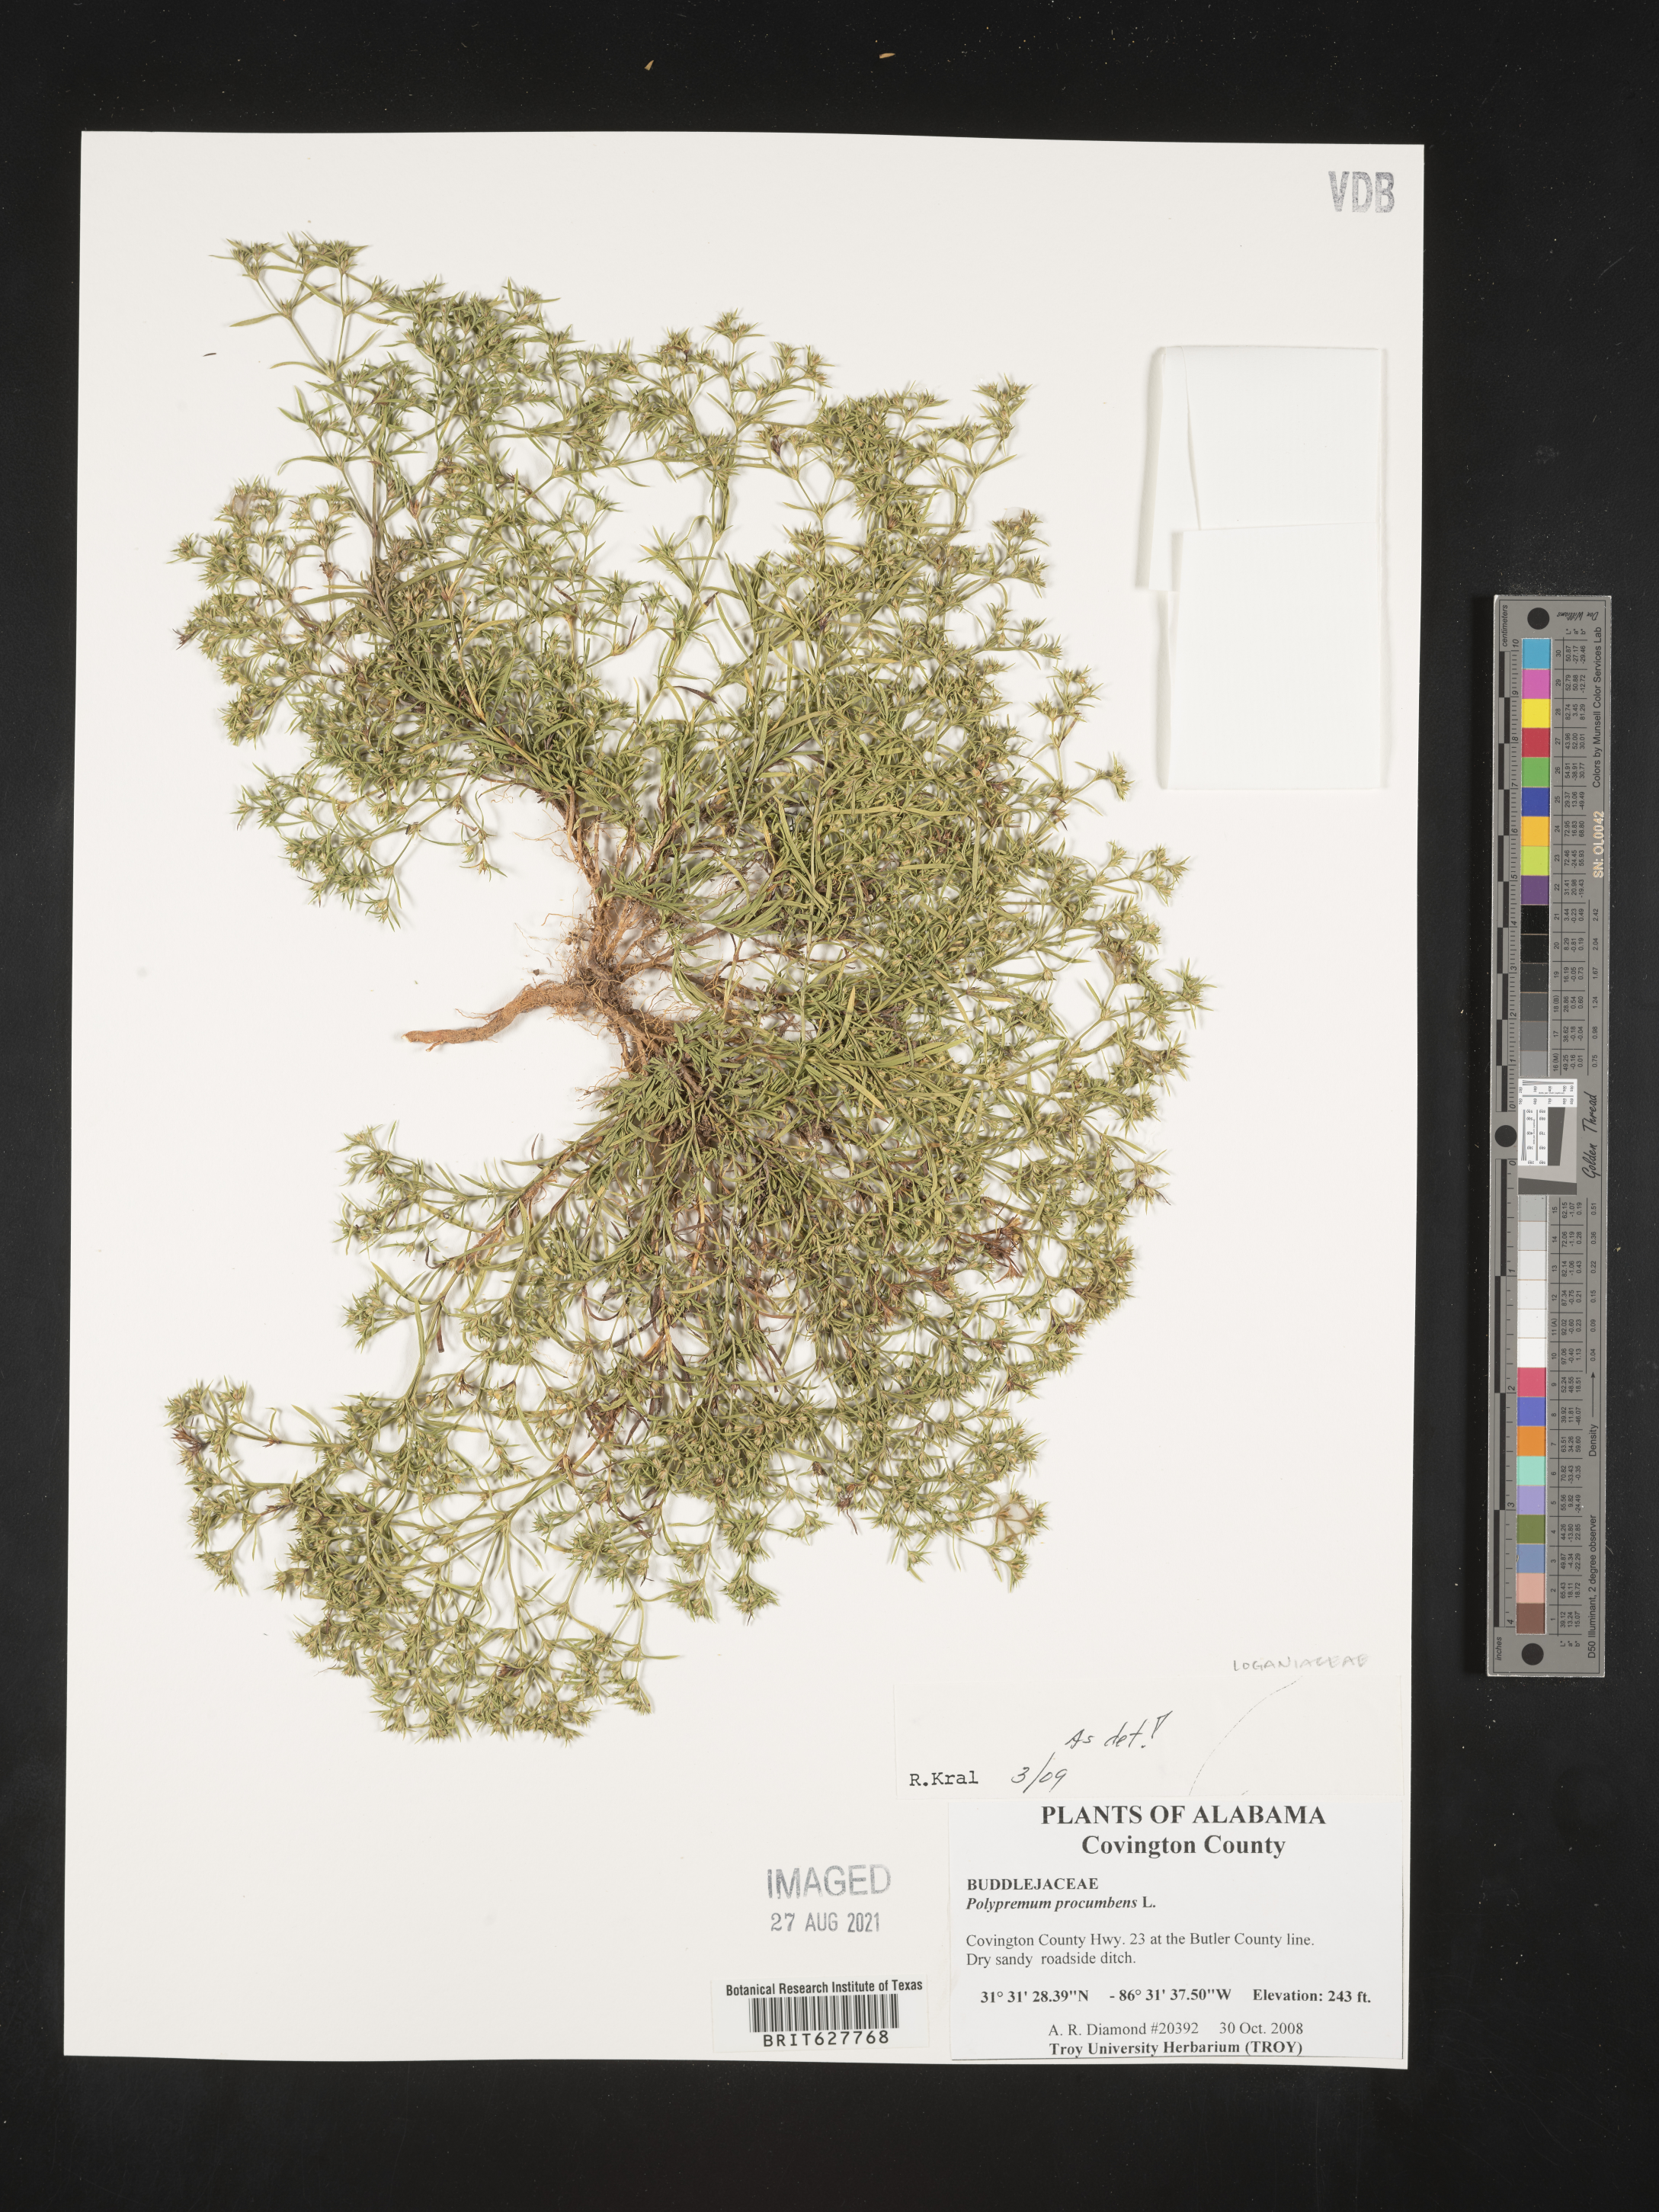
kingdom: Plantae
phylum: Tracheophyta
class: Magnoliopsida
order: Lamiales
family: Tetrachondraceae
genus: Polypremum
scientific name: Polypremum procumbens
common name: Juniper-leaf
